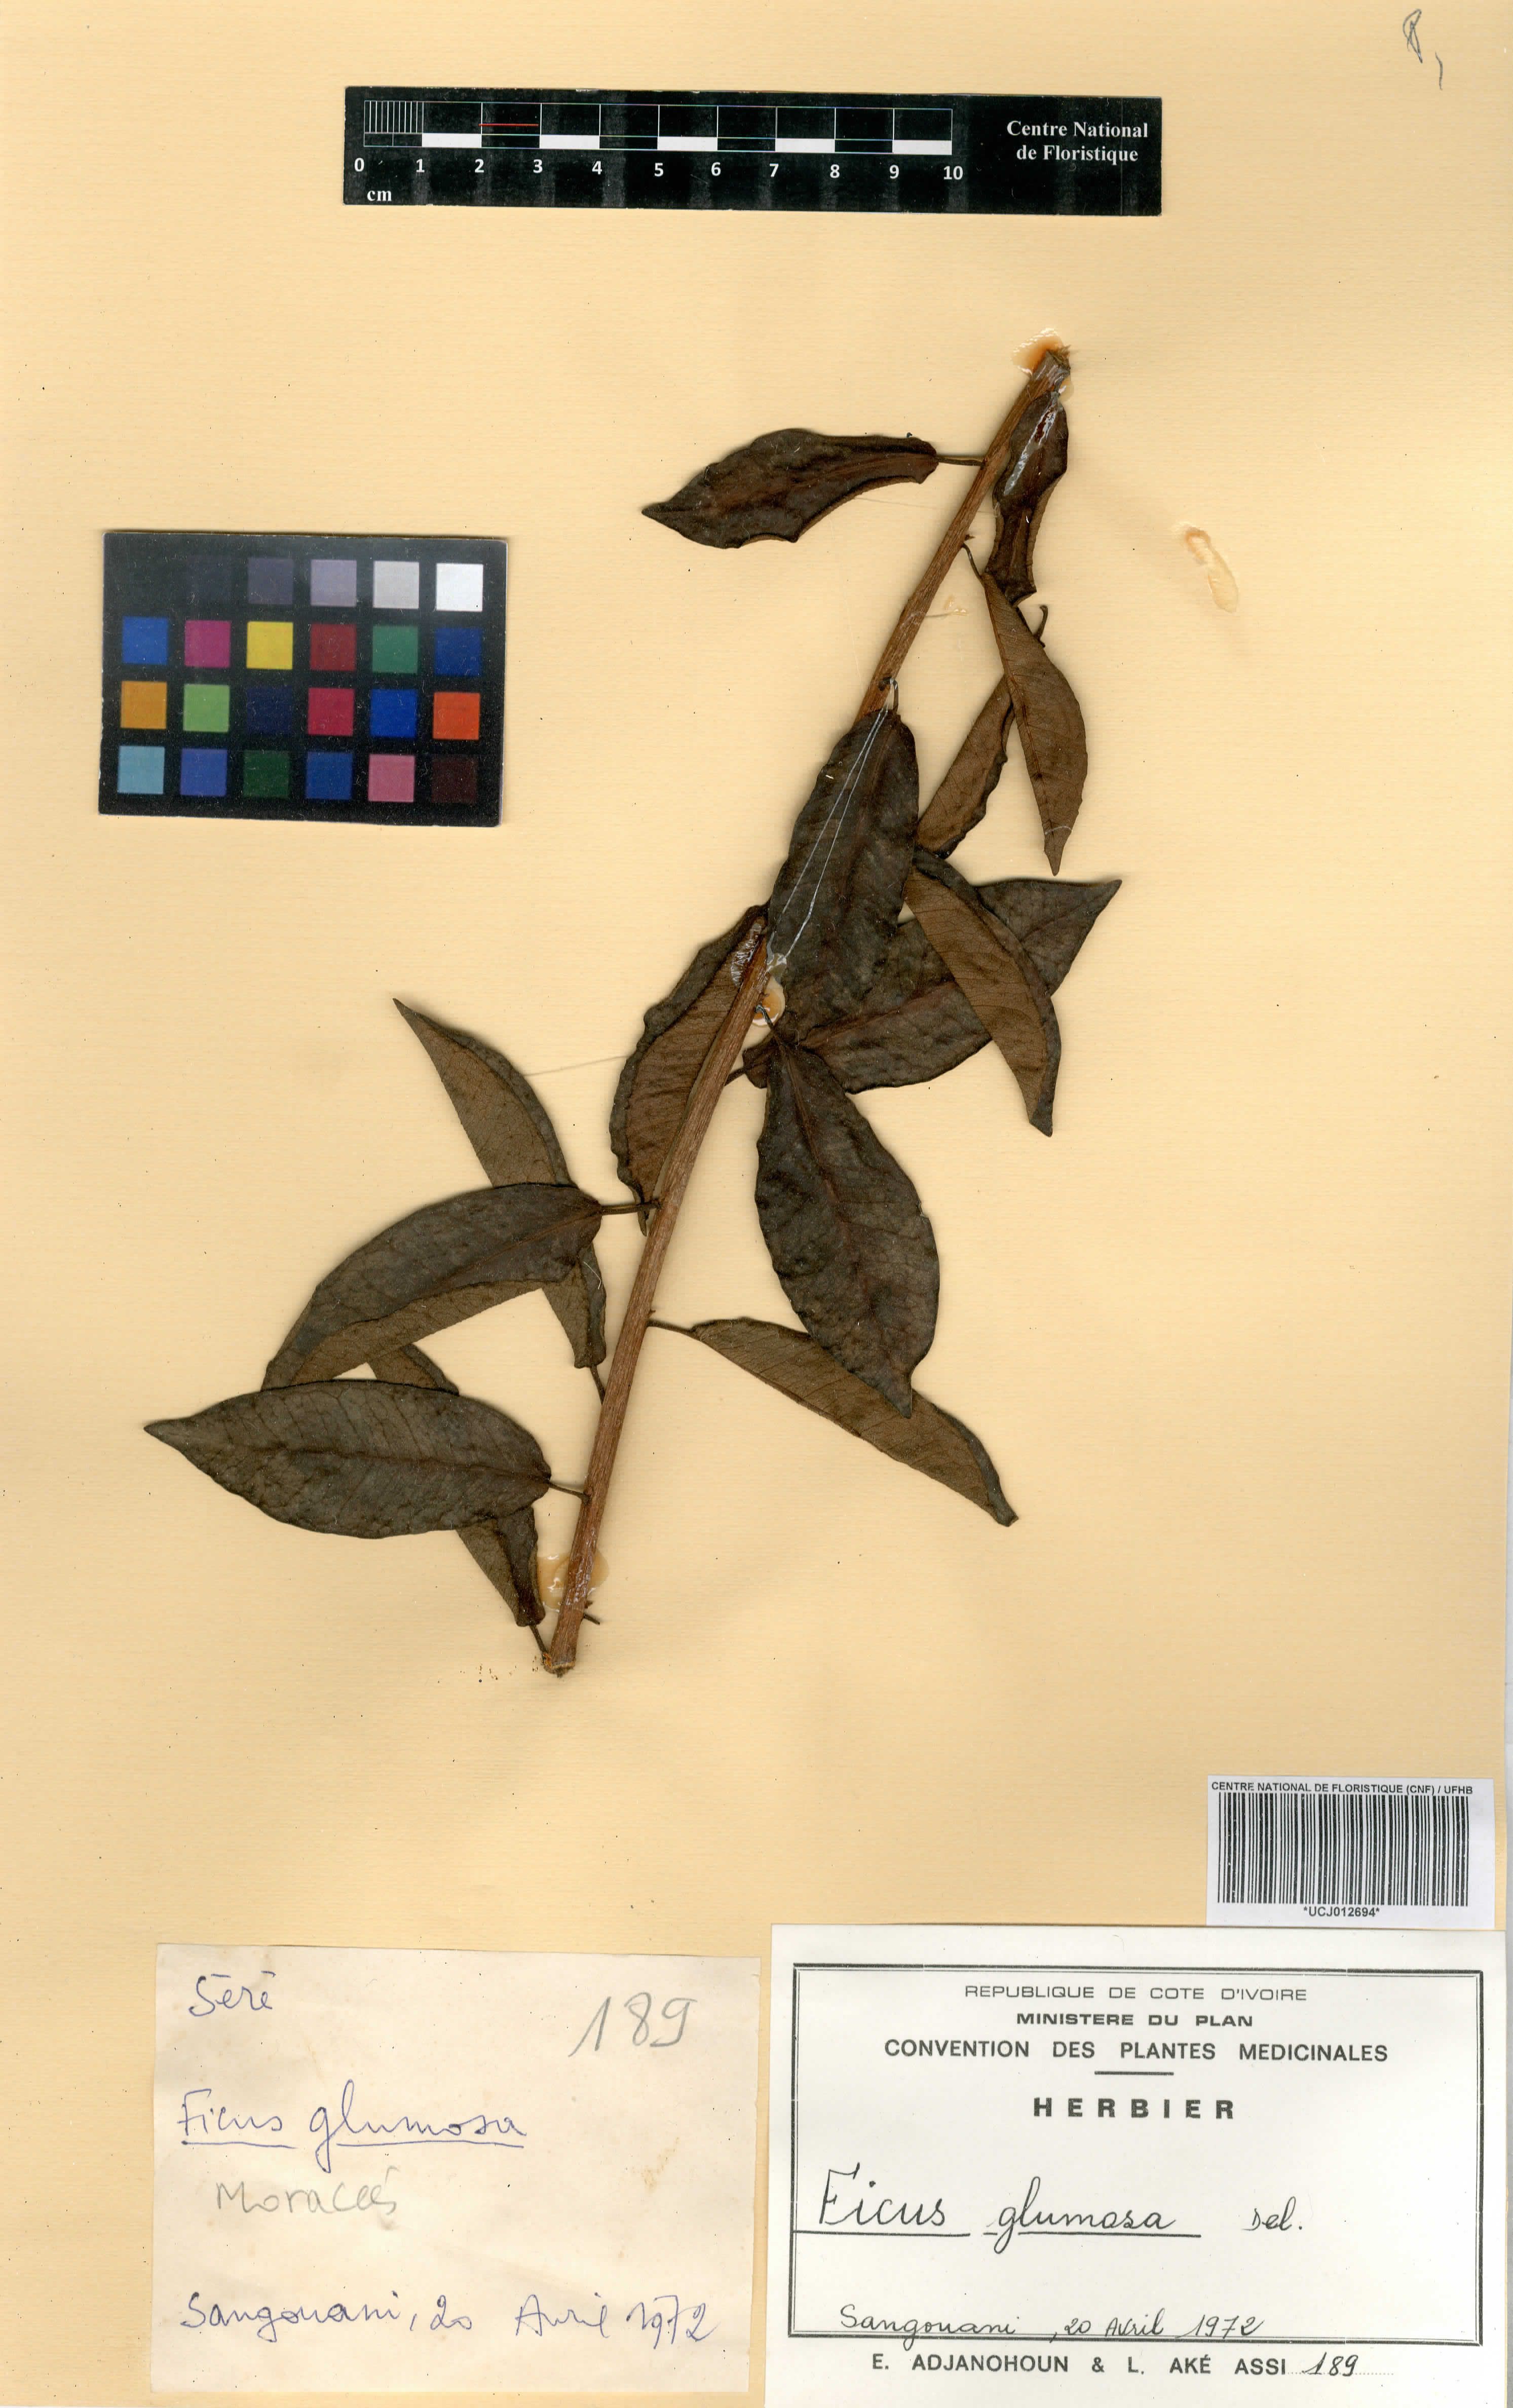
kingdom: Plantae
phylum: Tracheophyta
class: Magnoliopsida
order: Rosales
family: Moraceae
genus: Ficus
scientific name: Ficus glumosa
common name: Hairy rock fig
